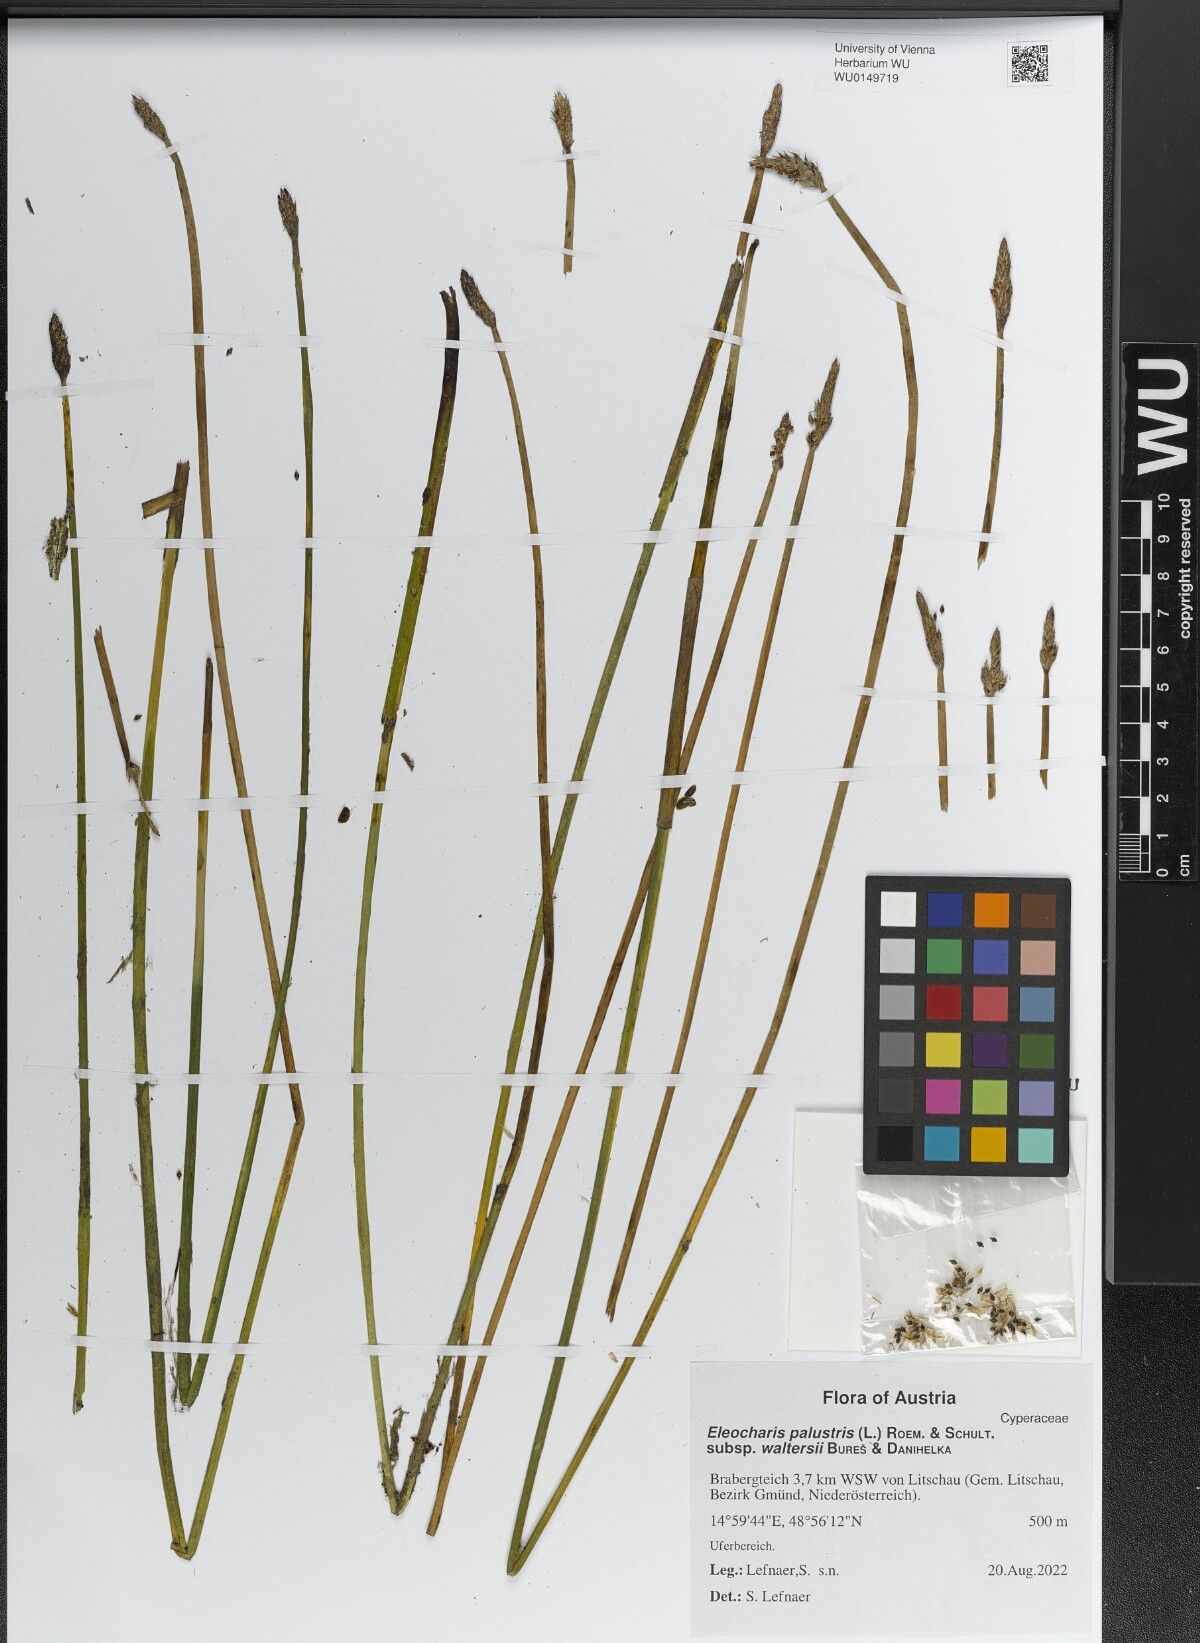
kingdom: Plantae
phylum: Tracheophyta
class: Liliopsida
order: Poales
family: Cyperaceae
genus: Eleocharis
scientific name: Eleocharis palustris
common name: Common spike-rush
